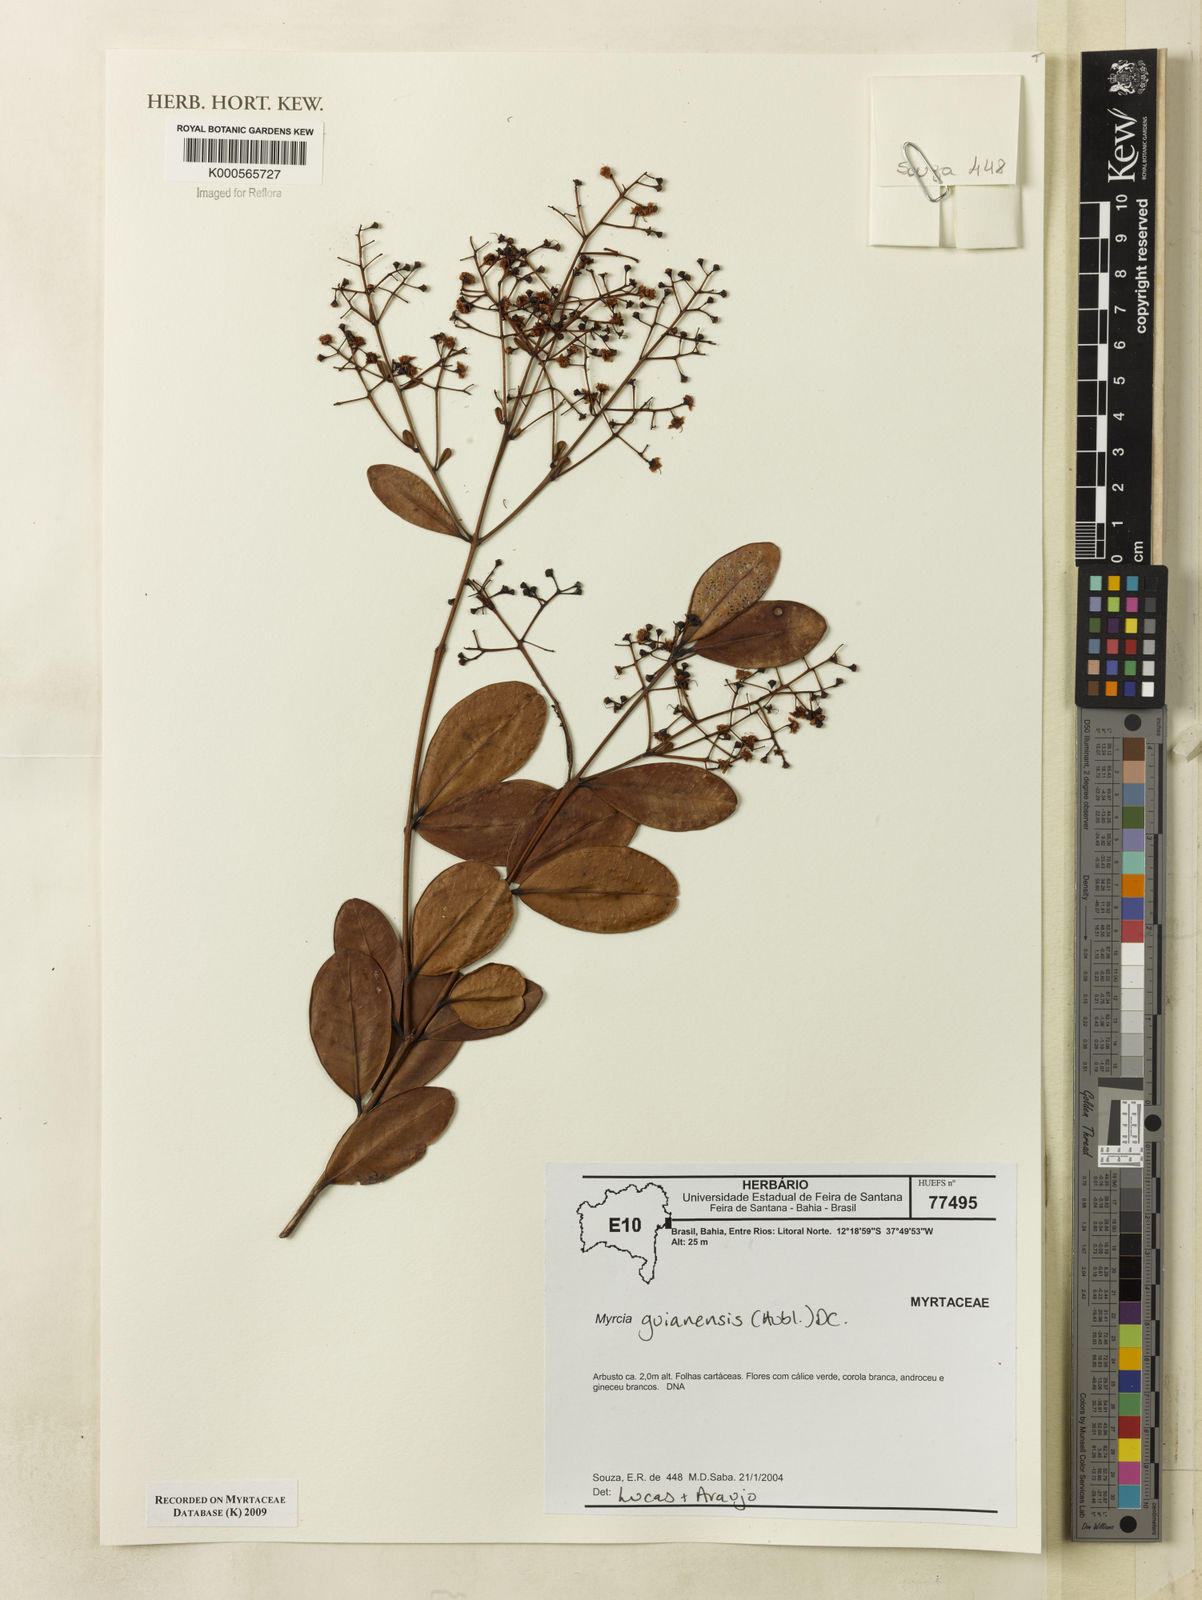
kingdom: Plantae
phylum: Tracheophyta
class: Magnoliopsida
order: Myrtales
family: Myrtaceae
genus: Myrcia
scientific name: Myrcia guianensis
